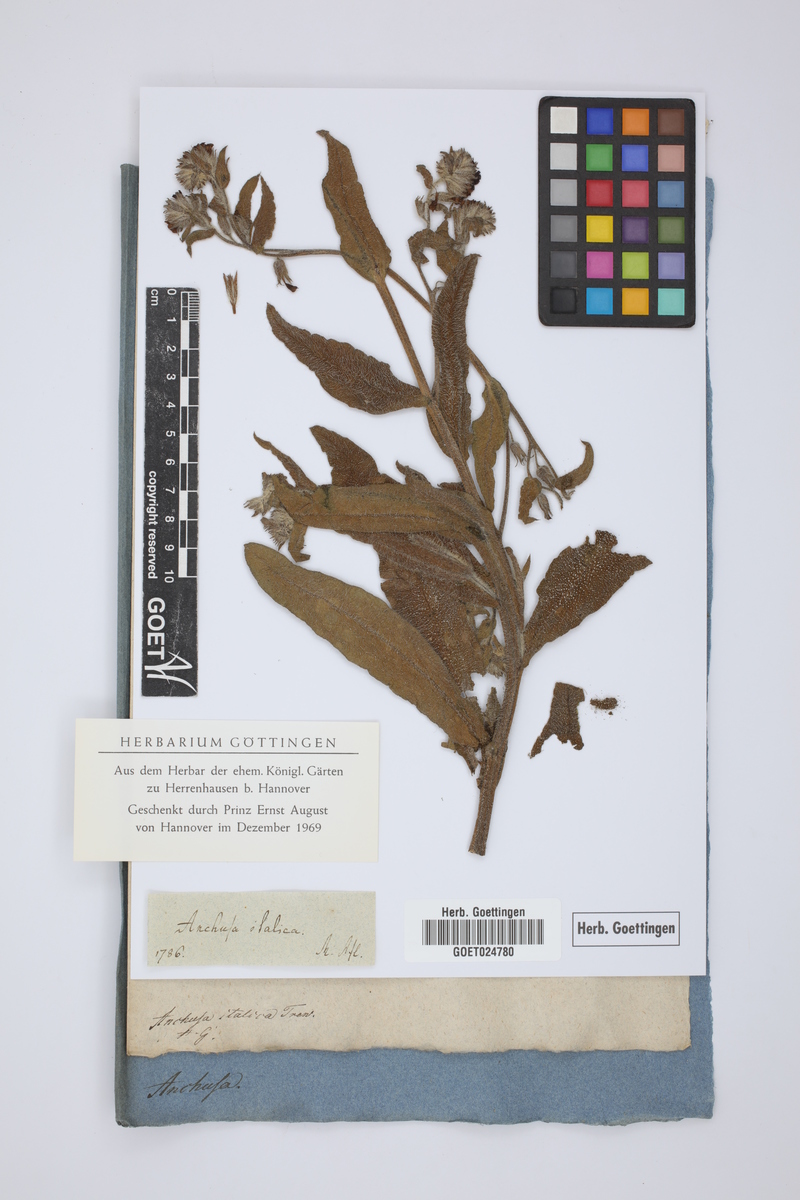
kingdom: Plantae
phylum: Tracheophyta
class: Magnoliopsida
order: Boraginales
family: Boraginaceae
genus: Anchusa
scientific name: Anchusa azurea
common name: Garden anchusa
